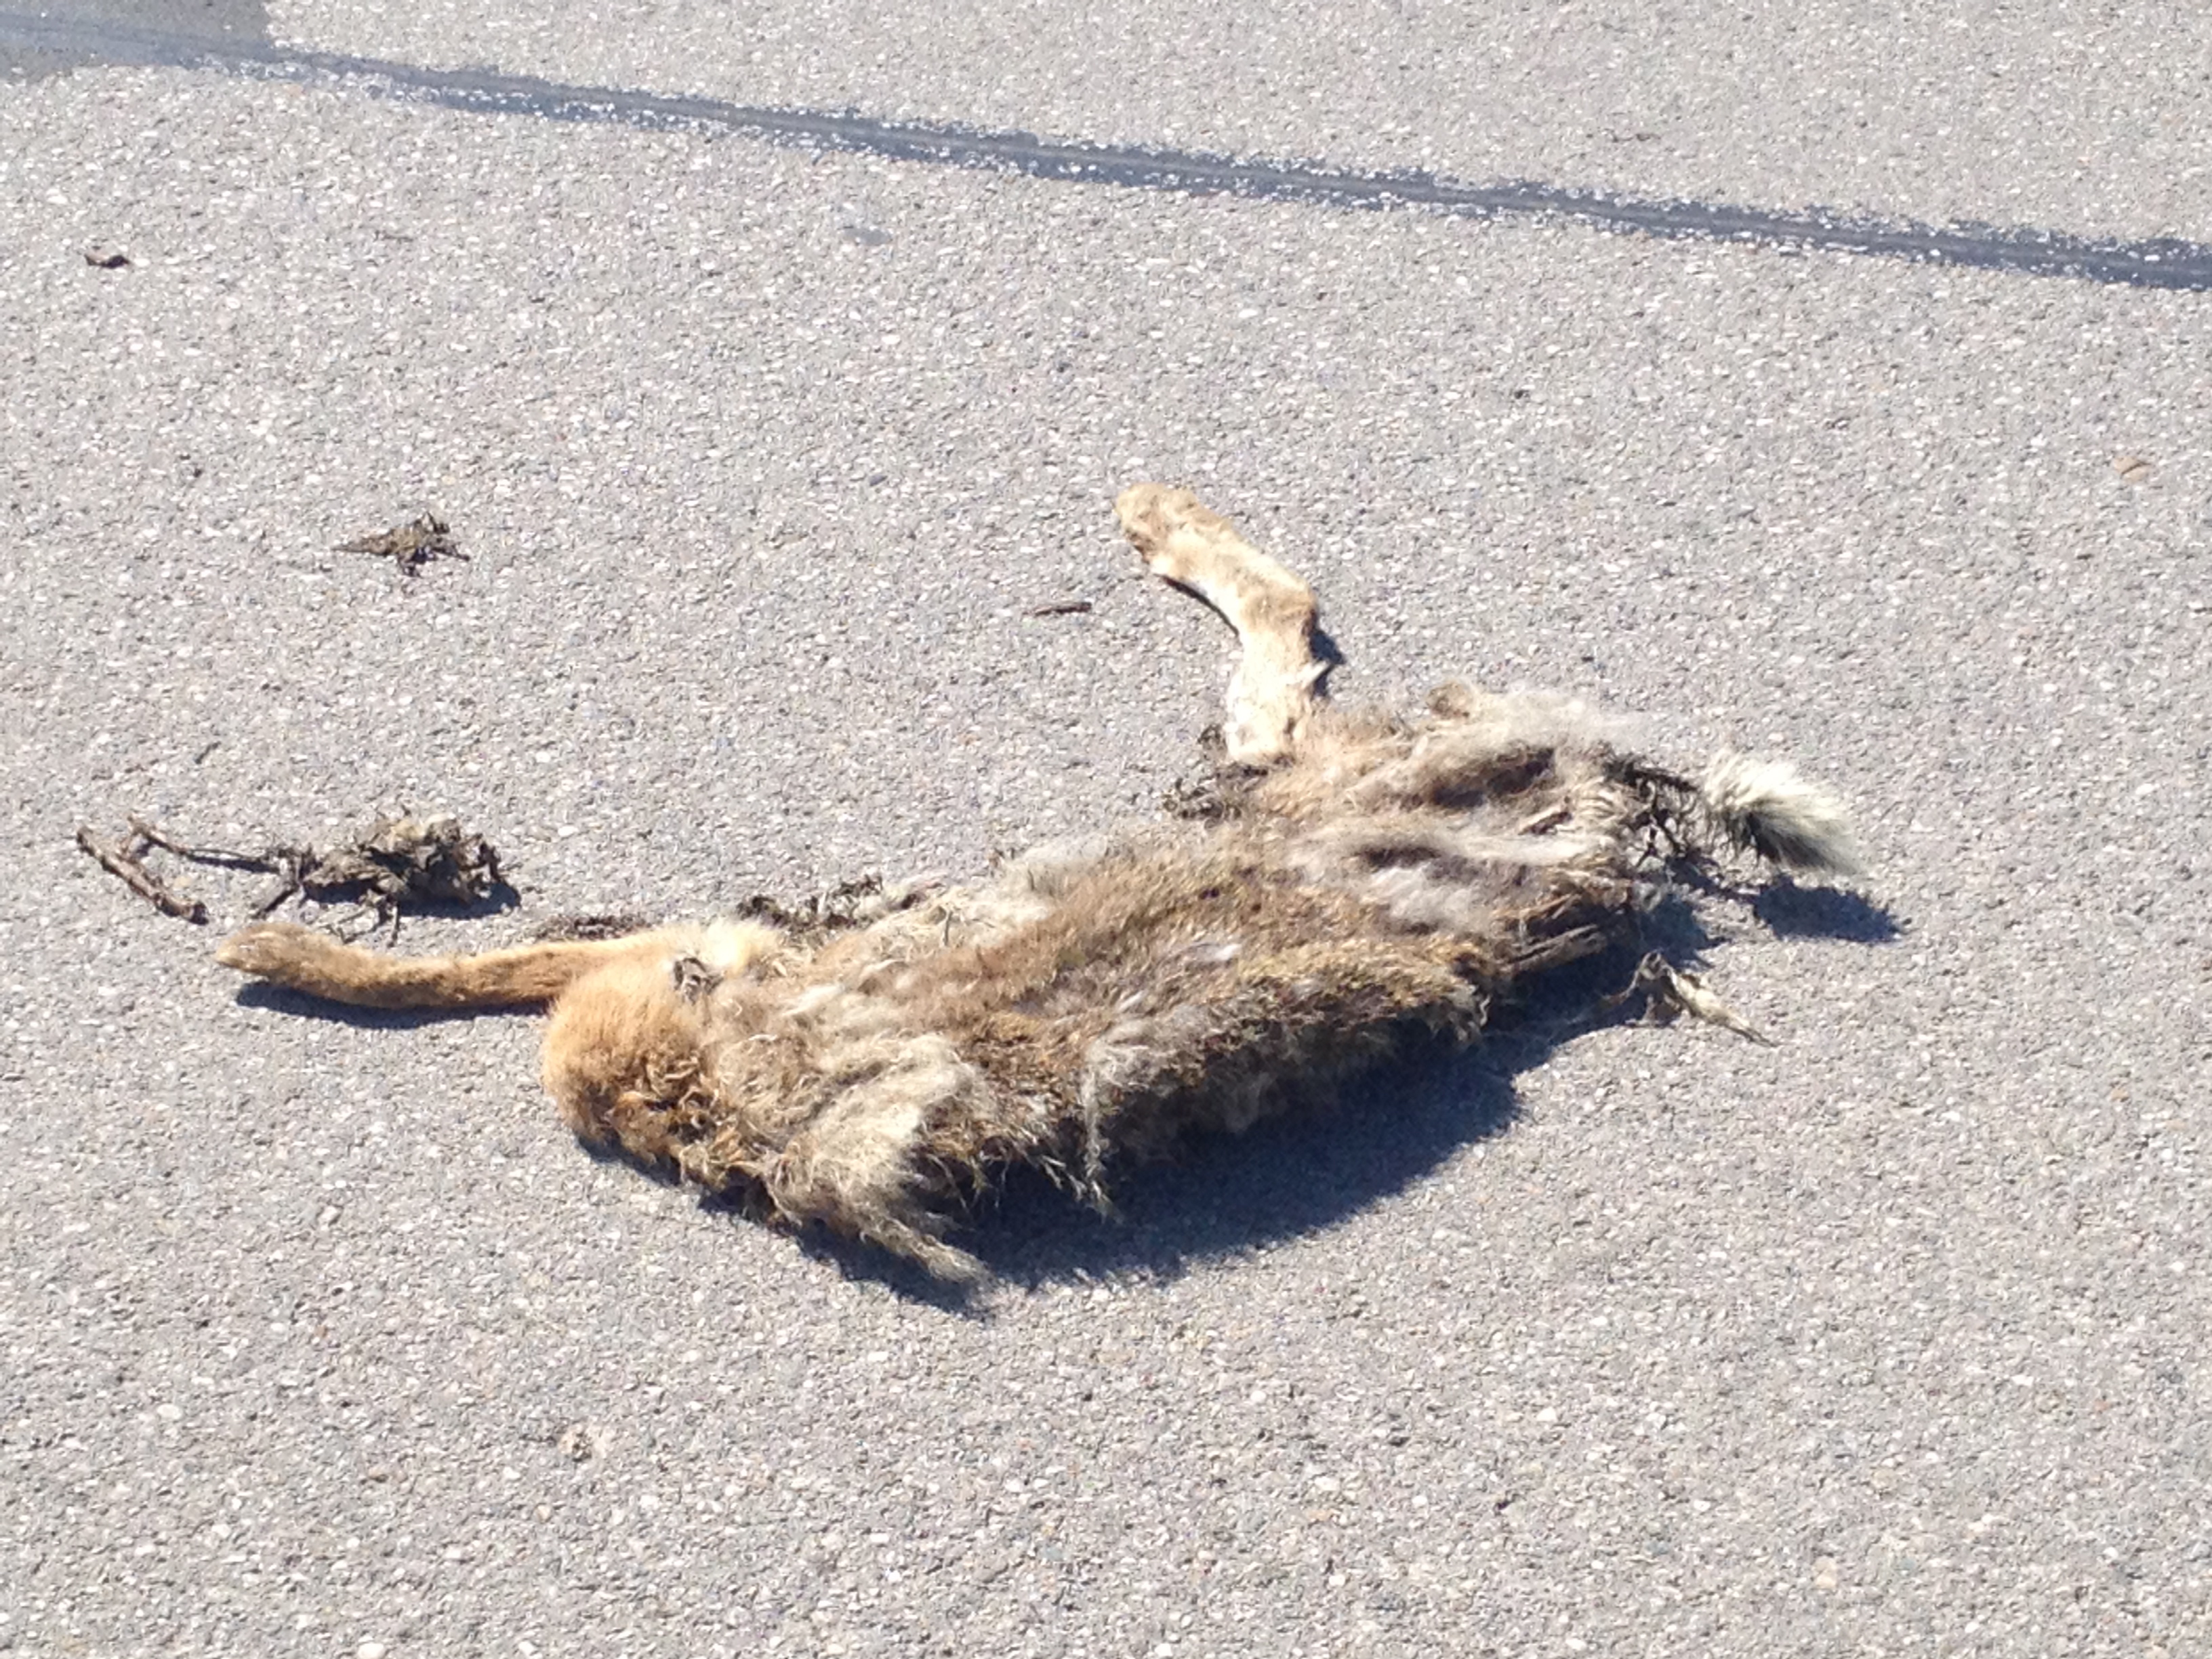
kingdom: Animalia
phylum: Chordata
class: Mammalia
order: Lagomorpha
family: Leporidae
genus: Lepus
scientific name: Lepus europaeus
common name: European hare
